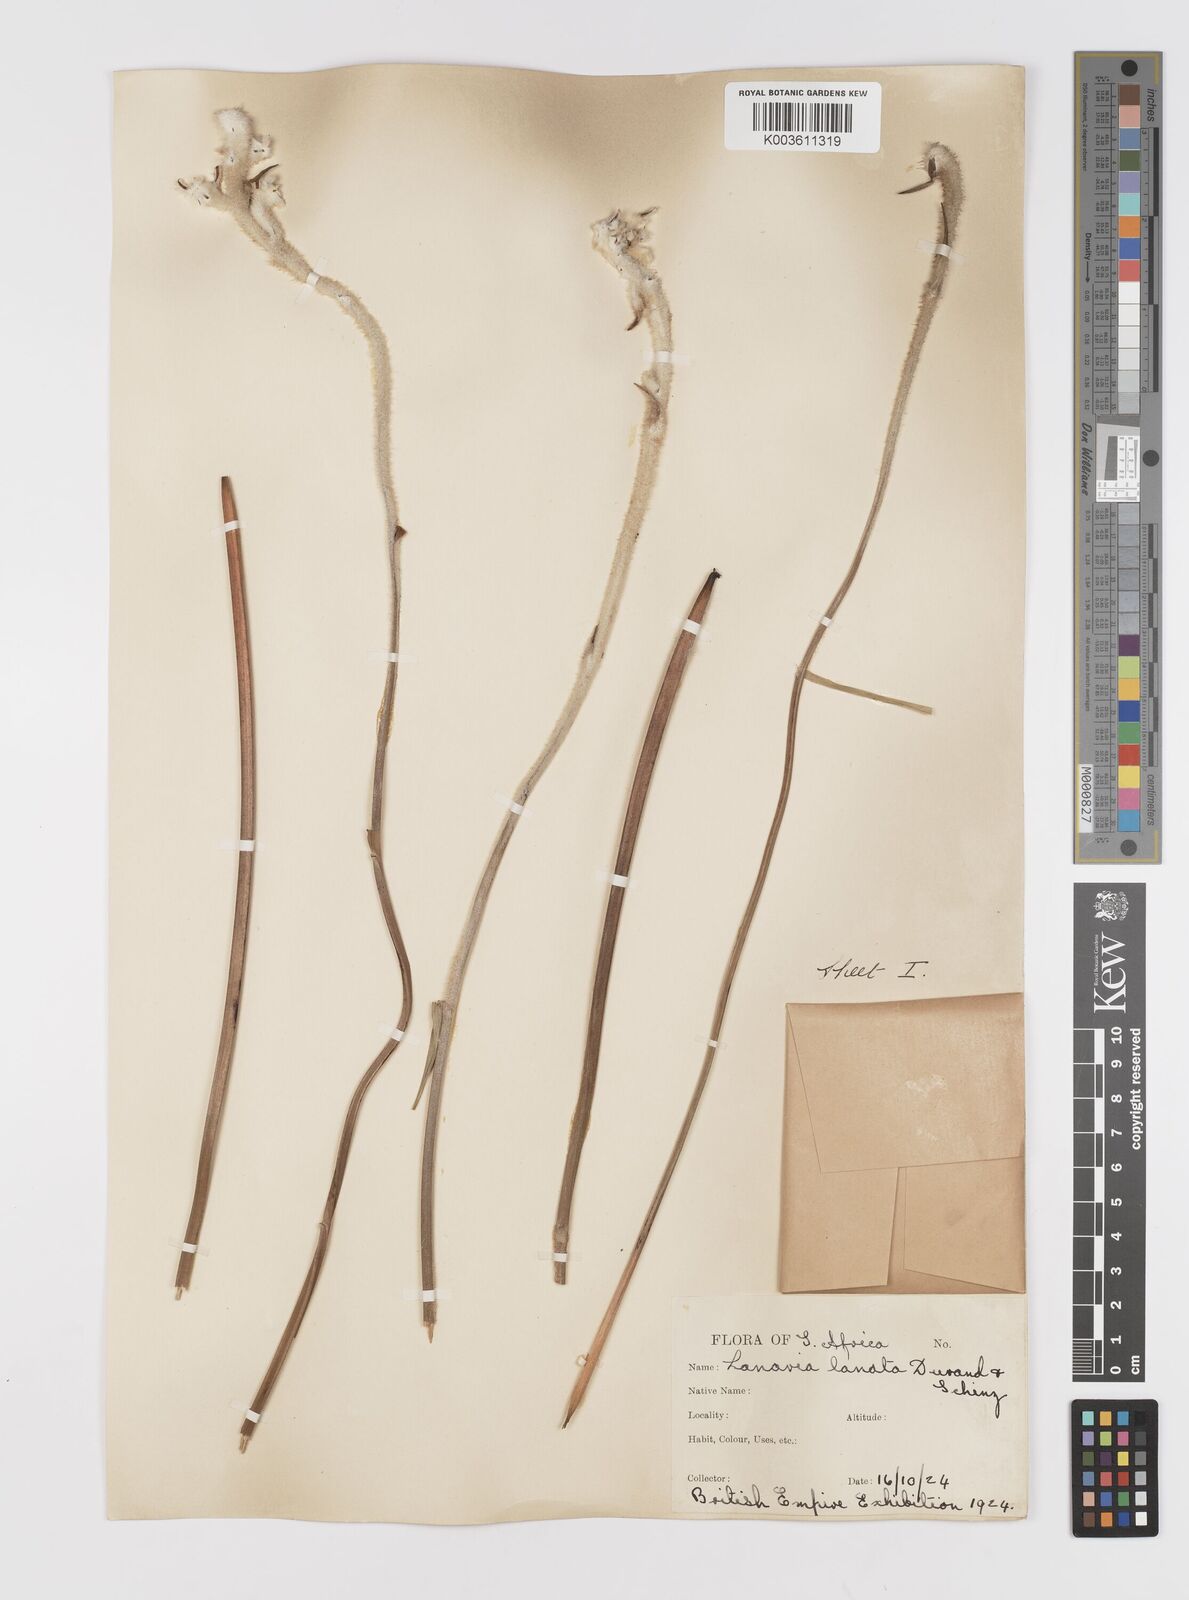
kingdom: Plantae
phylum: Tracheophyta
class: Liliopsida
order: Asparagales
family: Lanariaceae
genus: Lanaria
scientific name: Lanaria lanata
